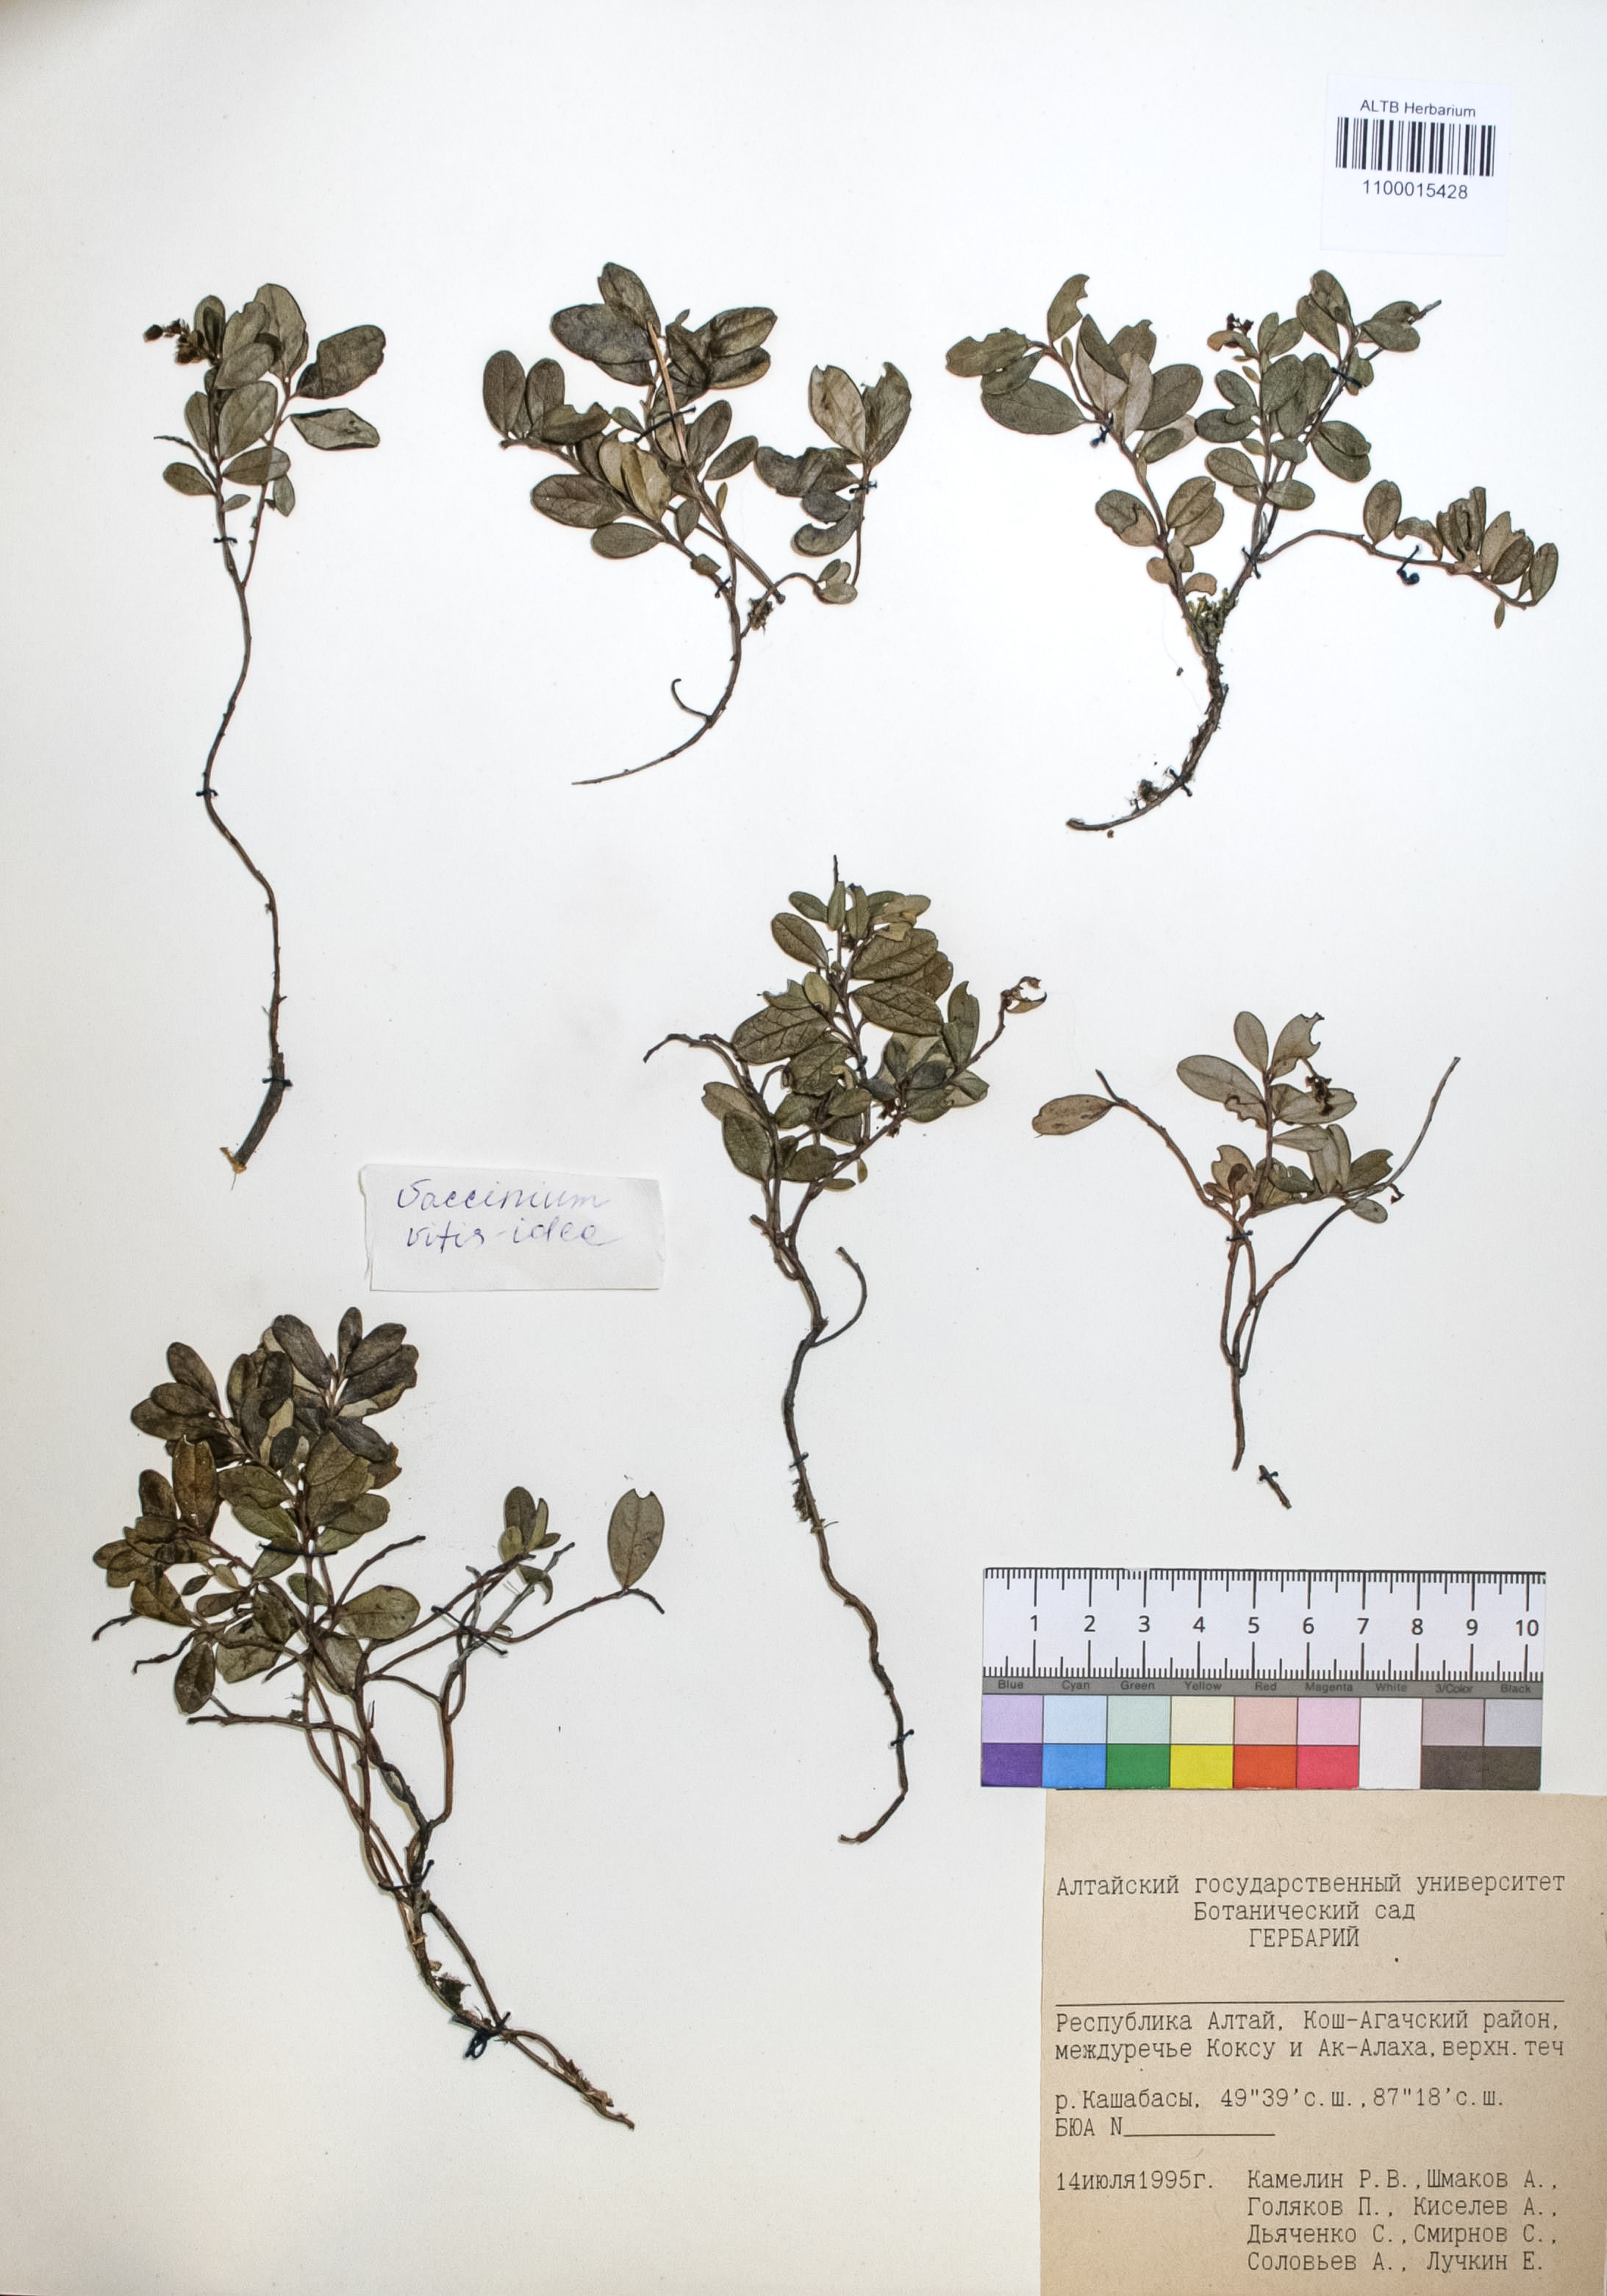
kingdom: Plantae
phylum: Tracheophyta
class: Magnoliopsida
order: Ericales
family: Ericaceae
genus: Vaccinium
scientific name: Vaccinium vitis-idaea
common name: Cowberry
